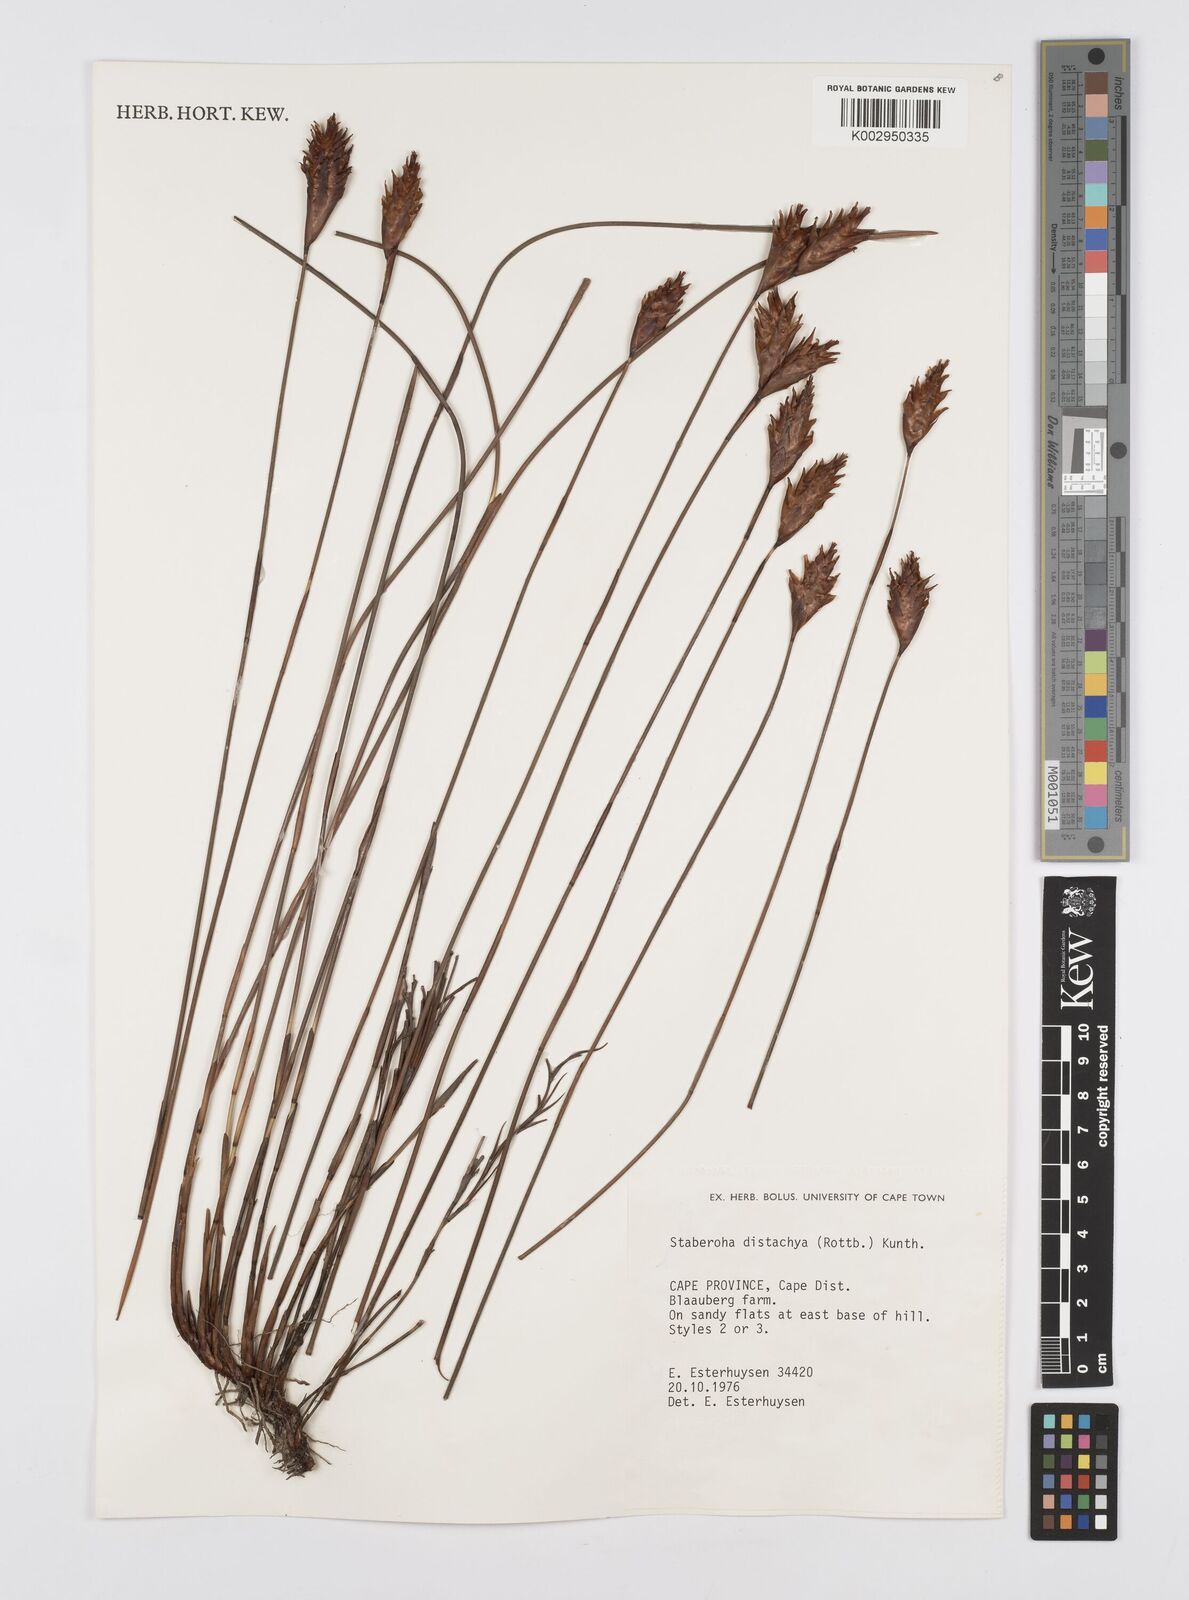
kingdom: Plantae
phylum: Tracheophyta
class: Liliopsida
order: Poales
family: Restionaceae
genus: Staberoha
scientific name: Staberoha distachyos
